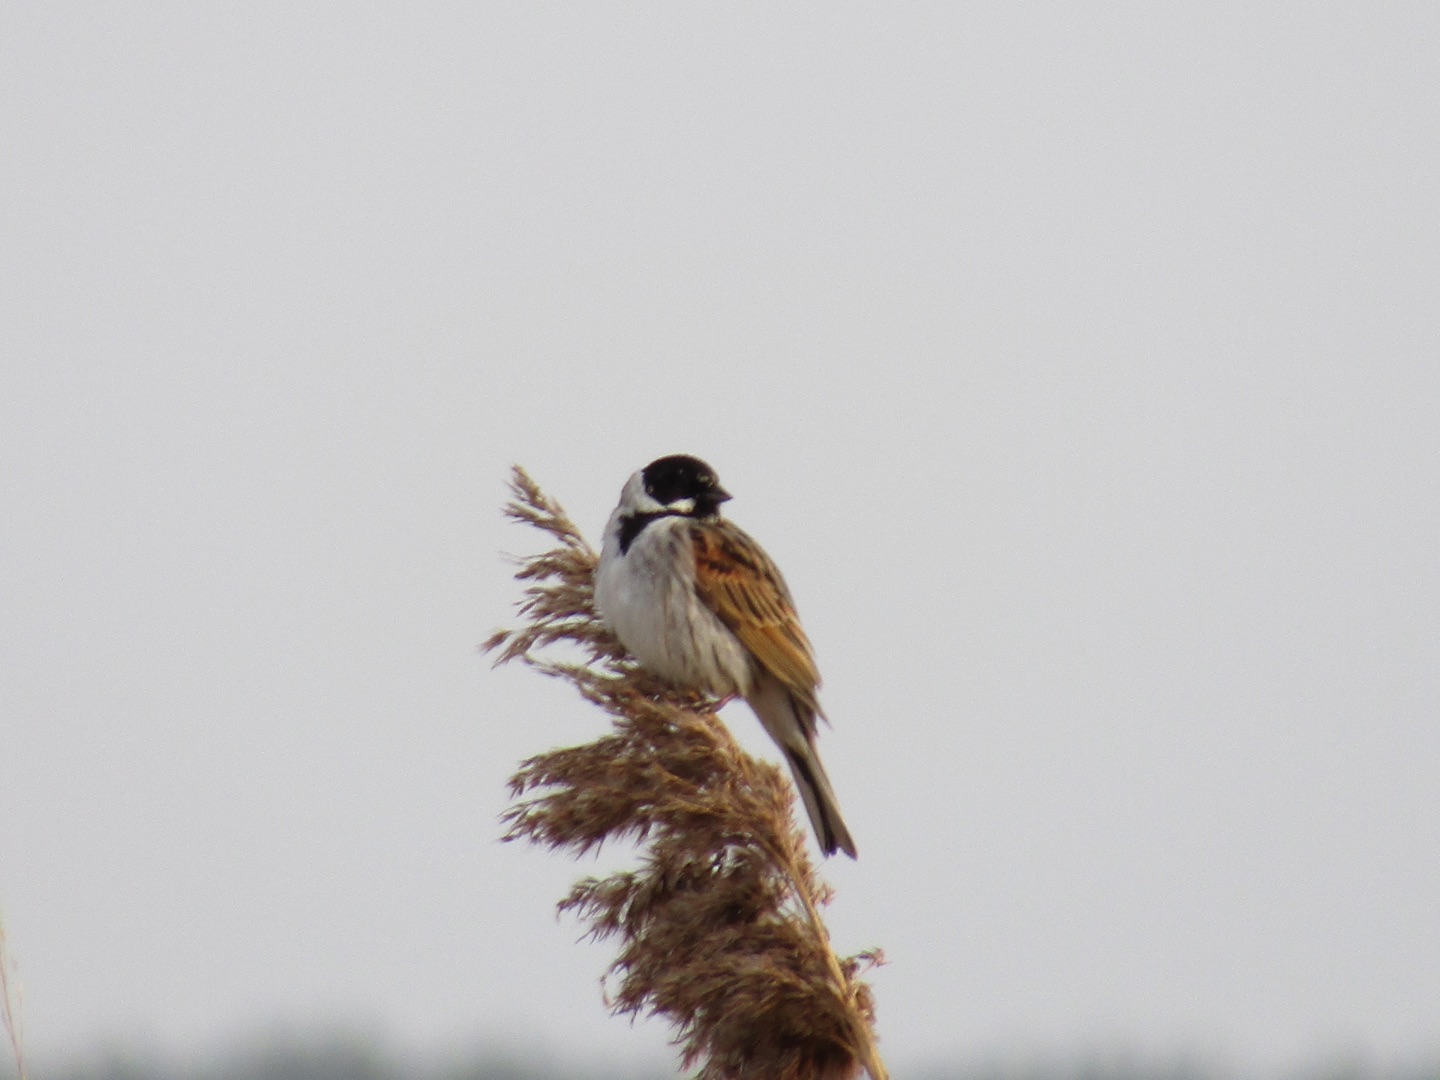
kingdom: Animalia
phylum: Chordata
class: Aves
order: Passeriformes
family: Emberizidae
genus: Emberiza
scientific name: Emberiza schoeniclus
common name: Rørspurv
